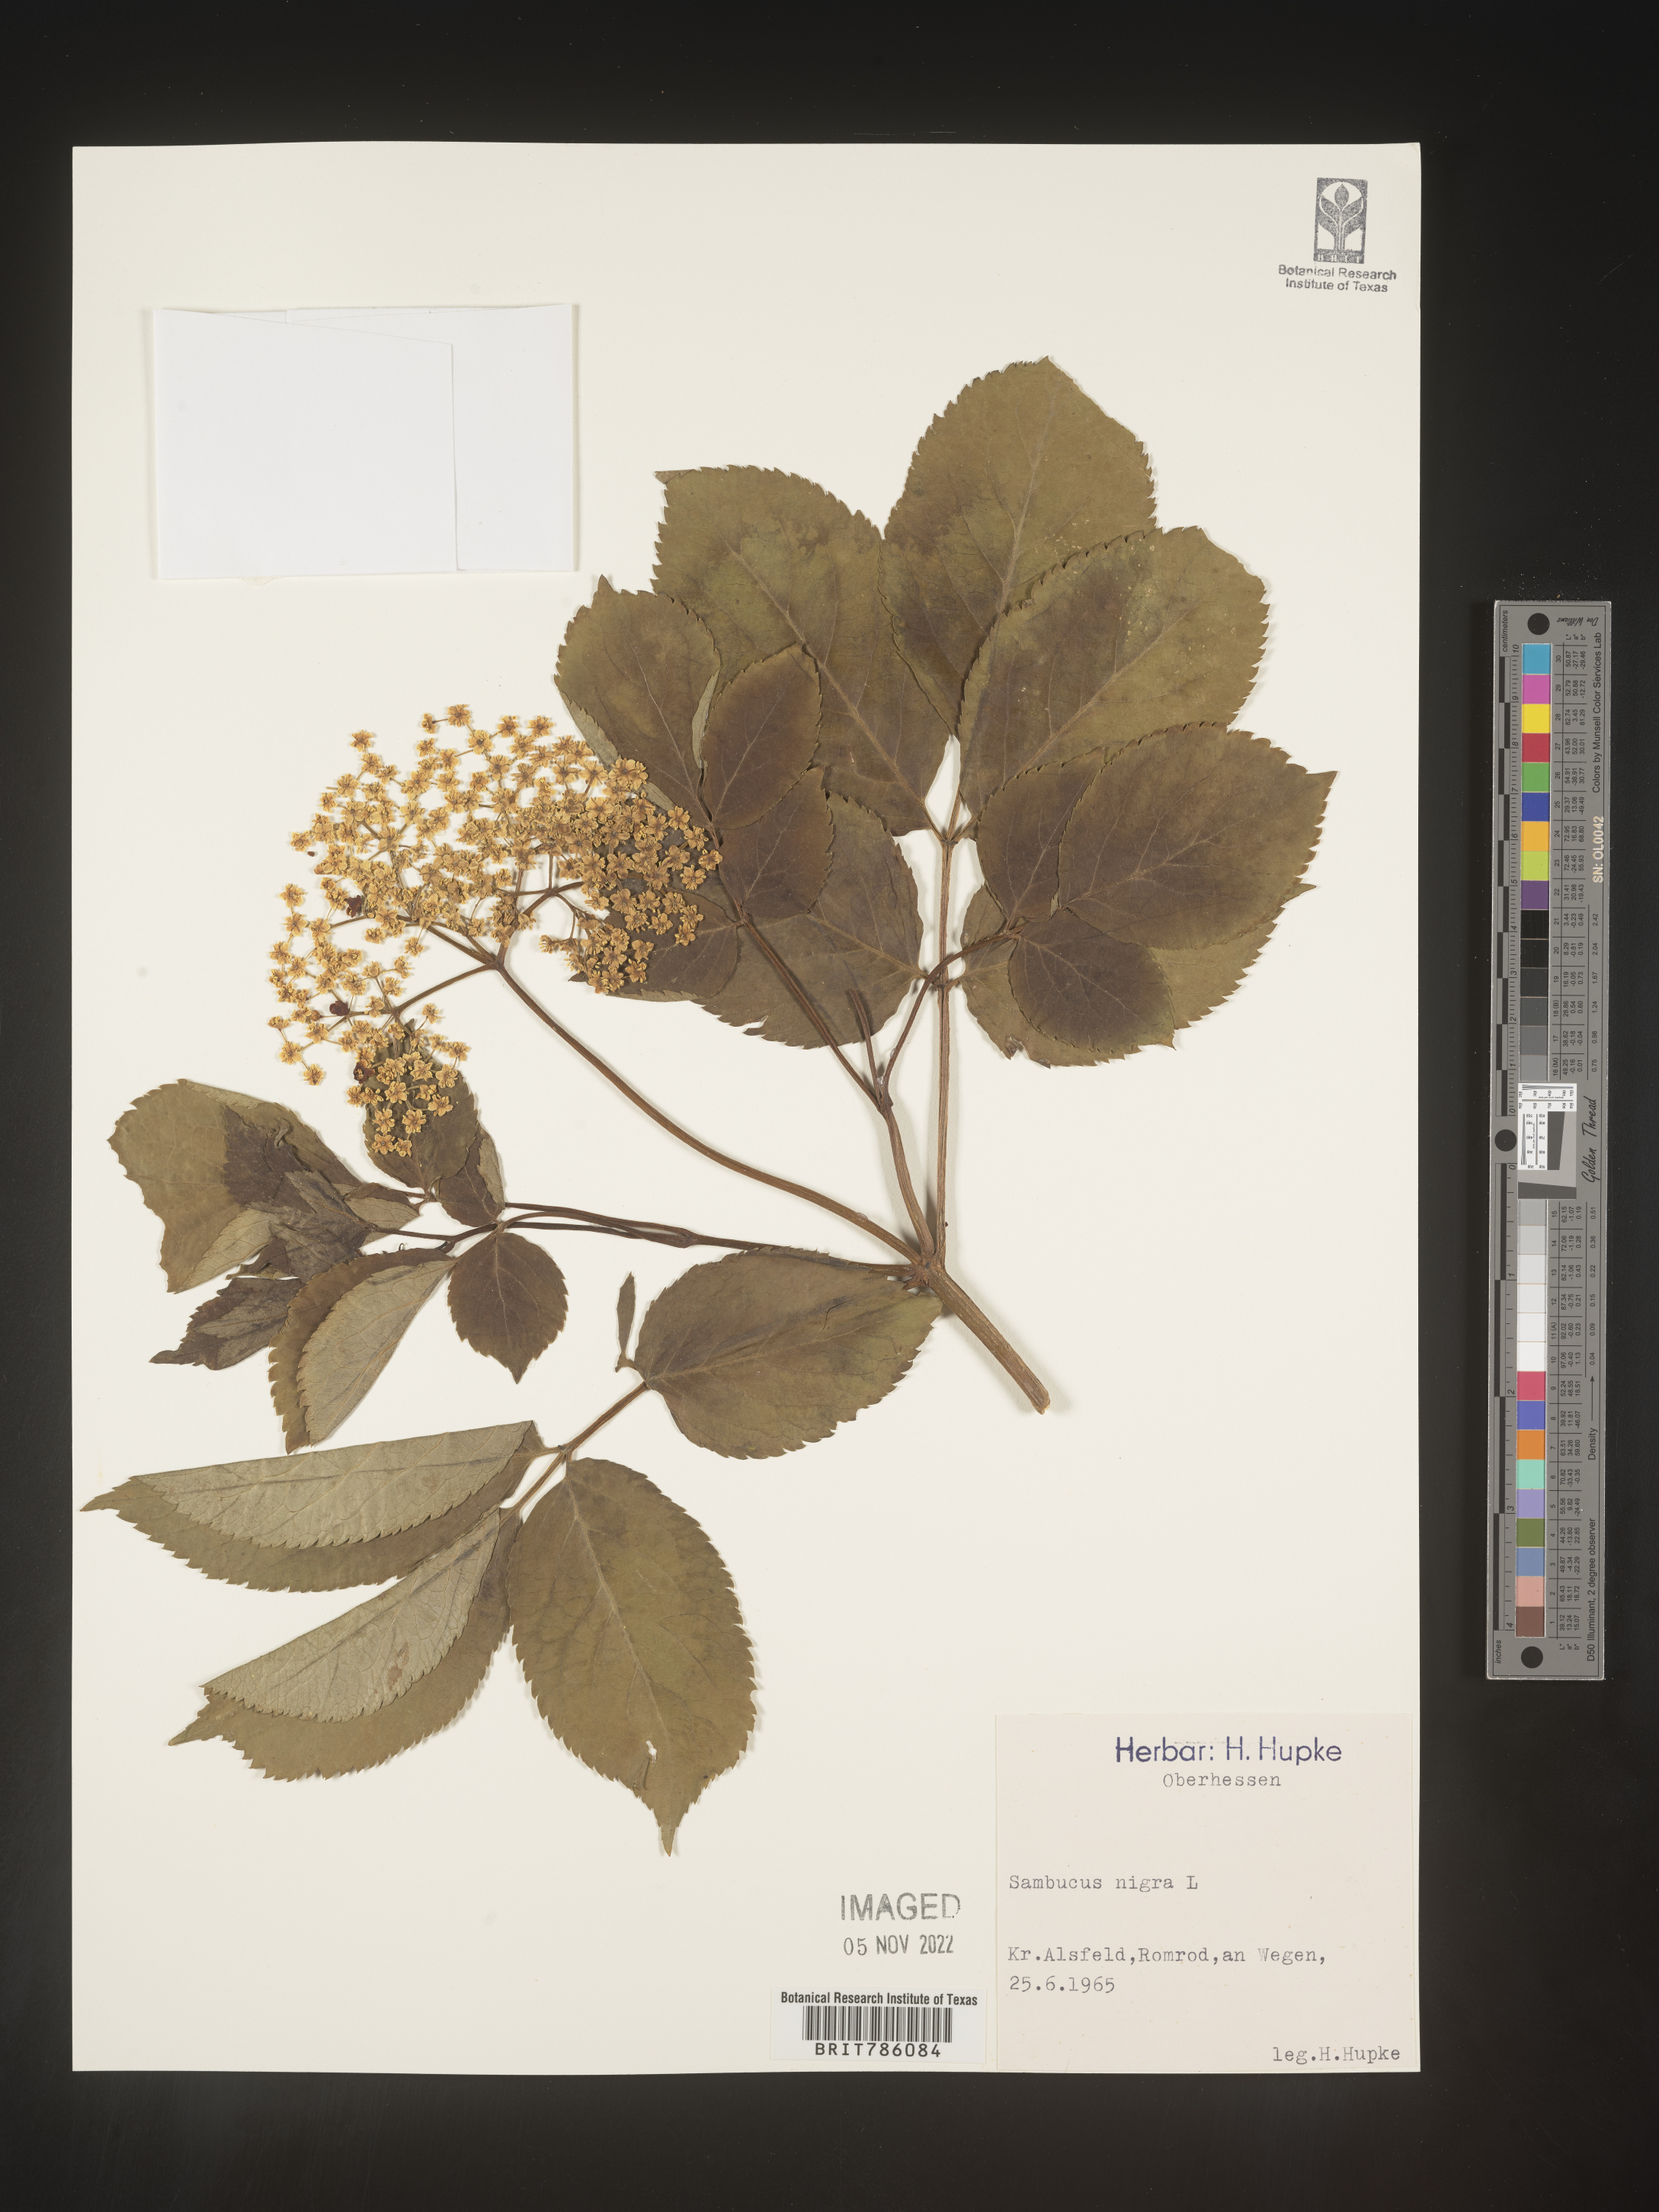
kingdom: Plantae
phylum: Tracheophyta
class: Magnoliopsida
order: Dipsacales
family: Viburnaceae
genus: Sambucus
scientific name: Sambucus
